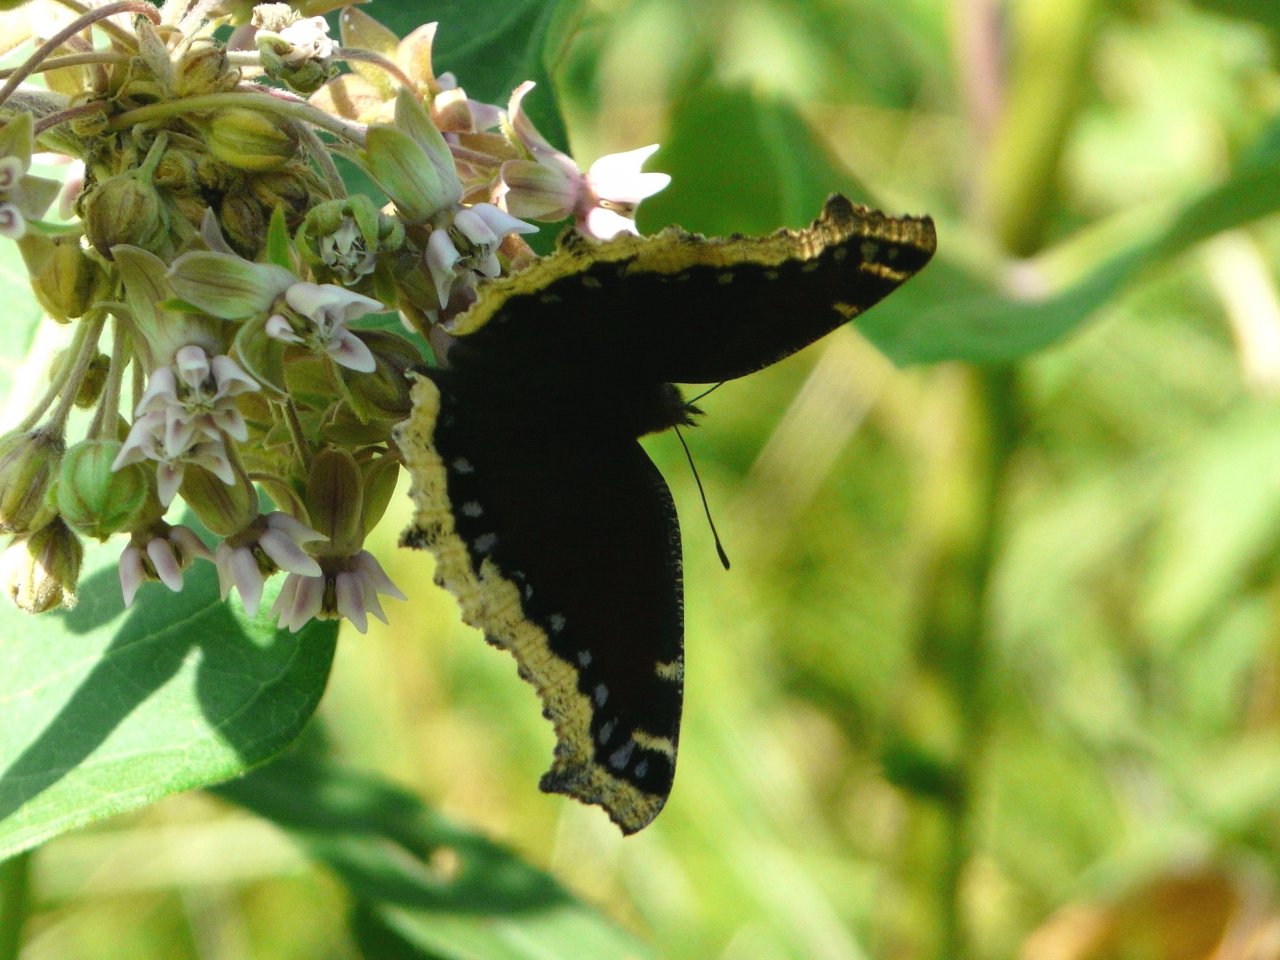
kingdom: Animalia
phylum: Arthropoda
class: Insecta
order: Lepidoptera
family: Nymphalidae
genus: Nymphalis
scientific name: Nymphalis antiopa
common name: Mourning Cloak
